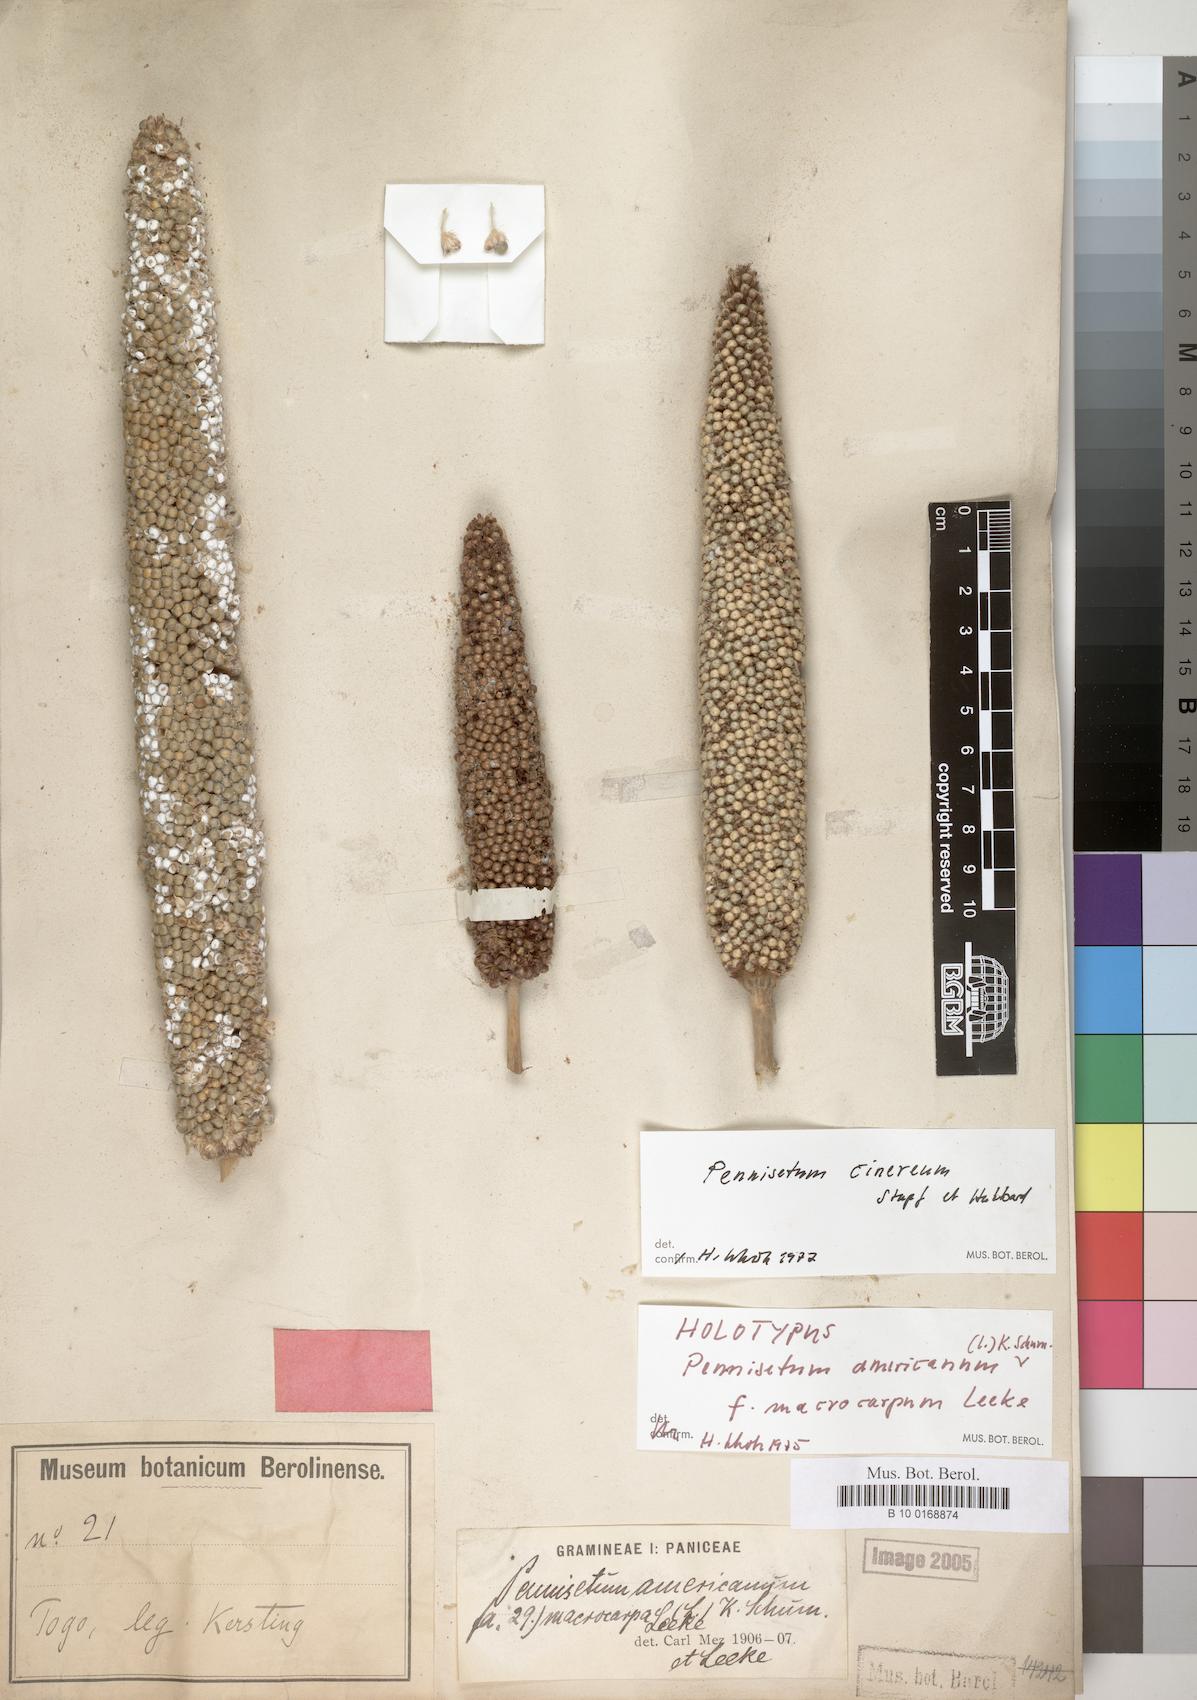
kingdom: Plantae
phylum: Tracheophyta
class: Liliopsida
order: Poales
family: Poaceae
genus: Cenchrus
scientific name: Cenchrus americanus
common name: Pearl millet
